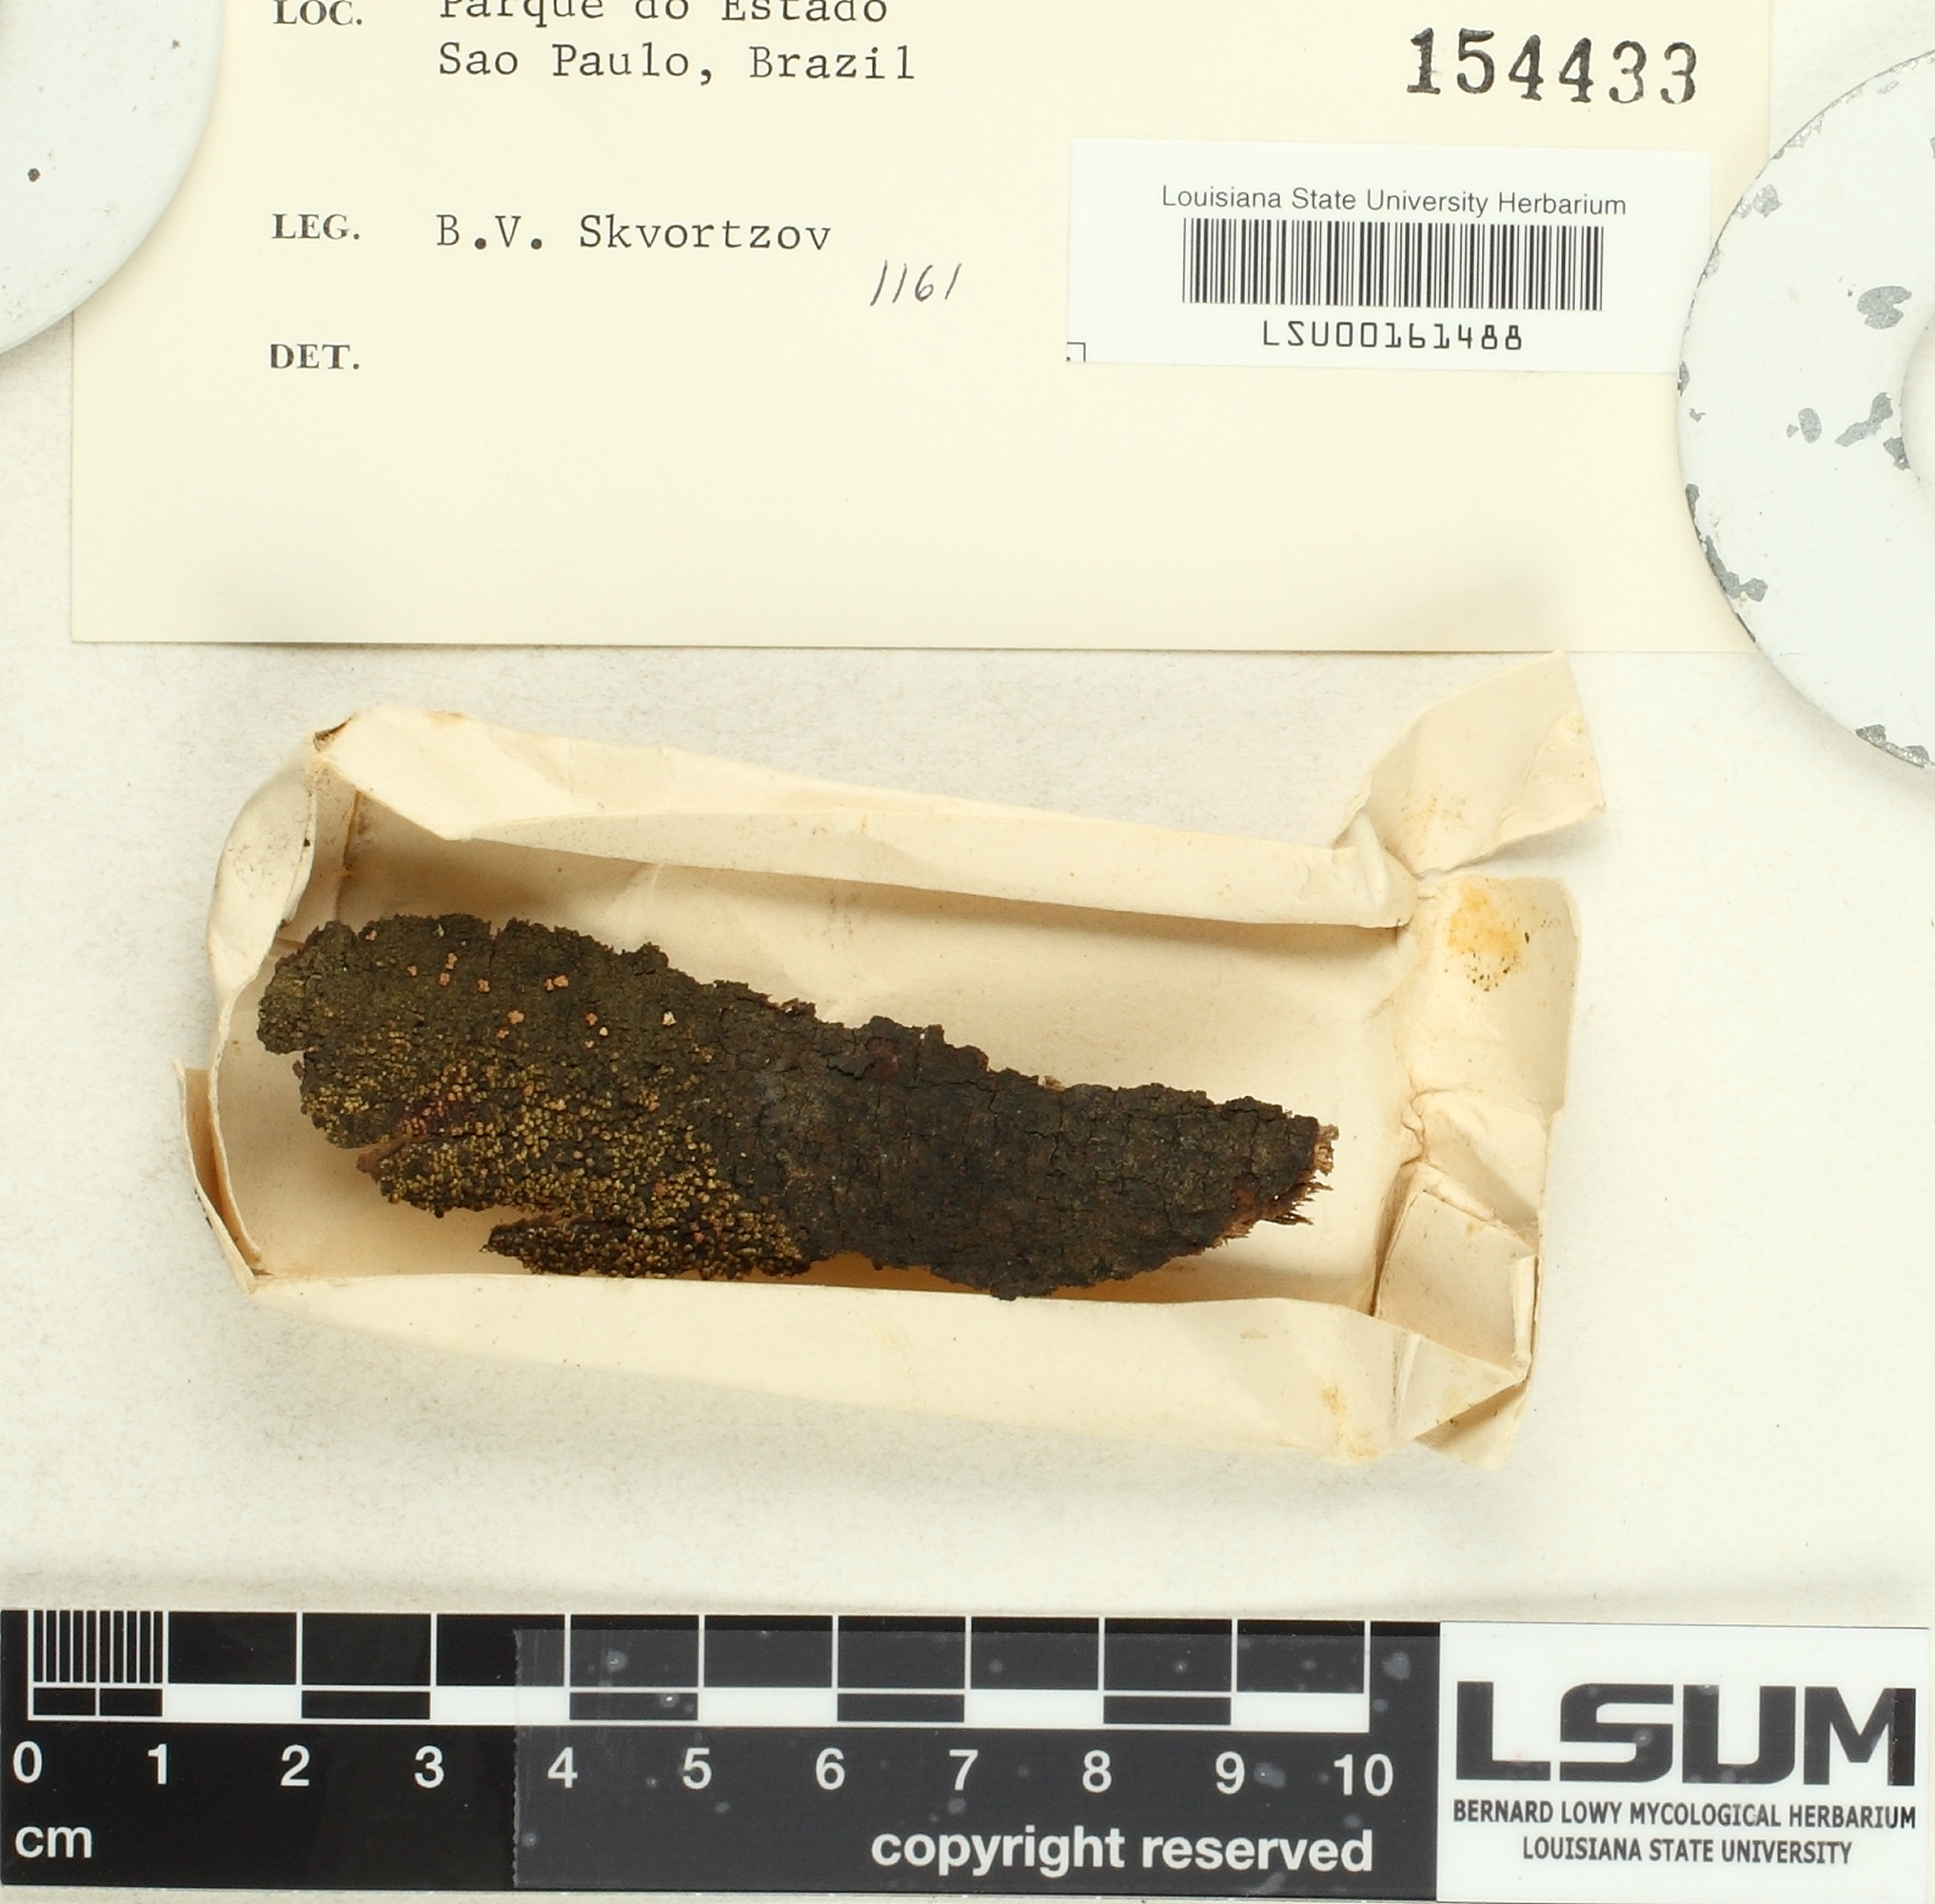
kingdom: Fungi
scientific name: Fungi
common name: Fungi
